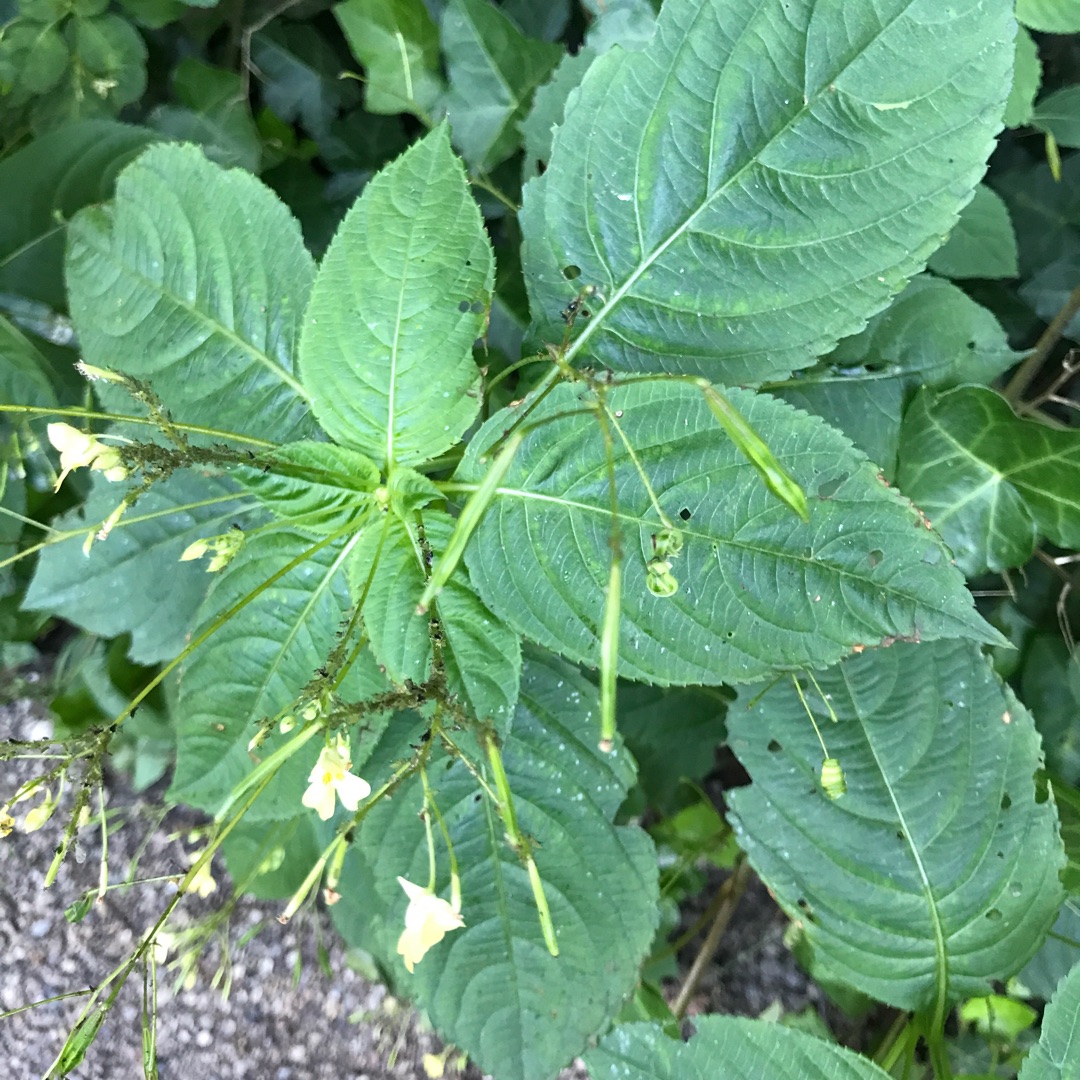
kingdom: Plantae
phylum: Tracheophyta
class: Magnoliopsida
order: Ericales
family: Balsaminaceae
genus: Impatiens
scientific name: Impatiens parviflora
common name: Småblomstret balsamin
